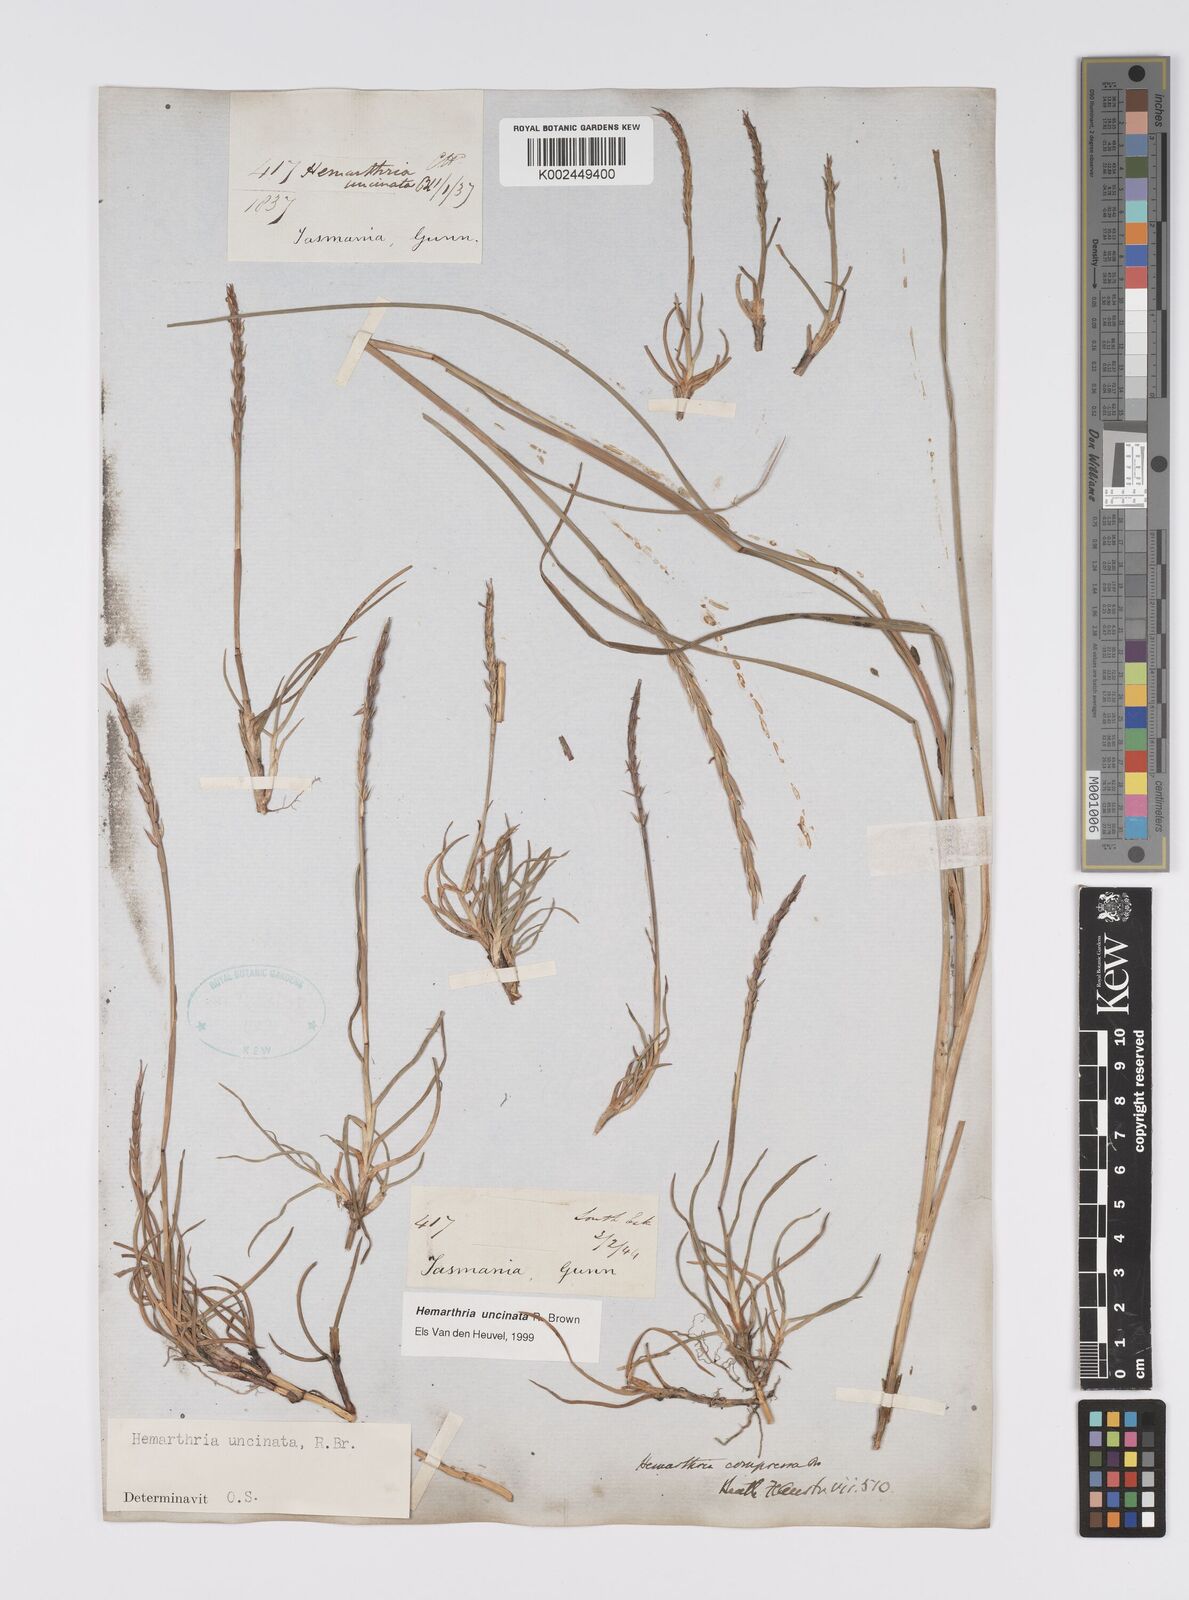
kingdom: Plantae
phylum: Tracheophyta
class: Liliopsida
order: Poales
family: Poaceae
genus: Hemarthria
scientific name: Hemarthria uncinata
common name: Matgrass
